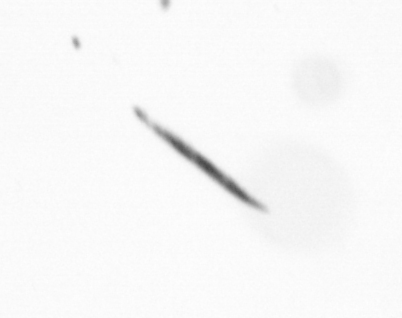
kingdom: Chromista
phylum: Ochrophyta
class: Bacillariophyceae
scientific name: Bacillariophyceae
